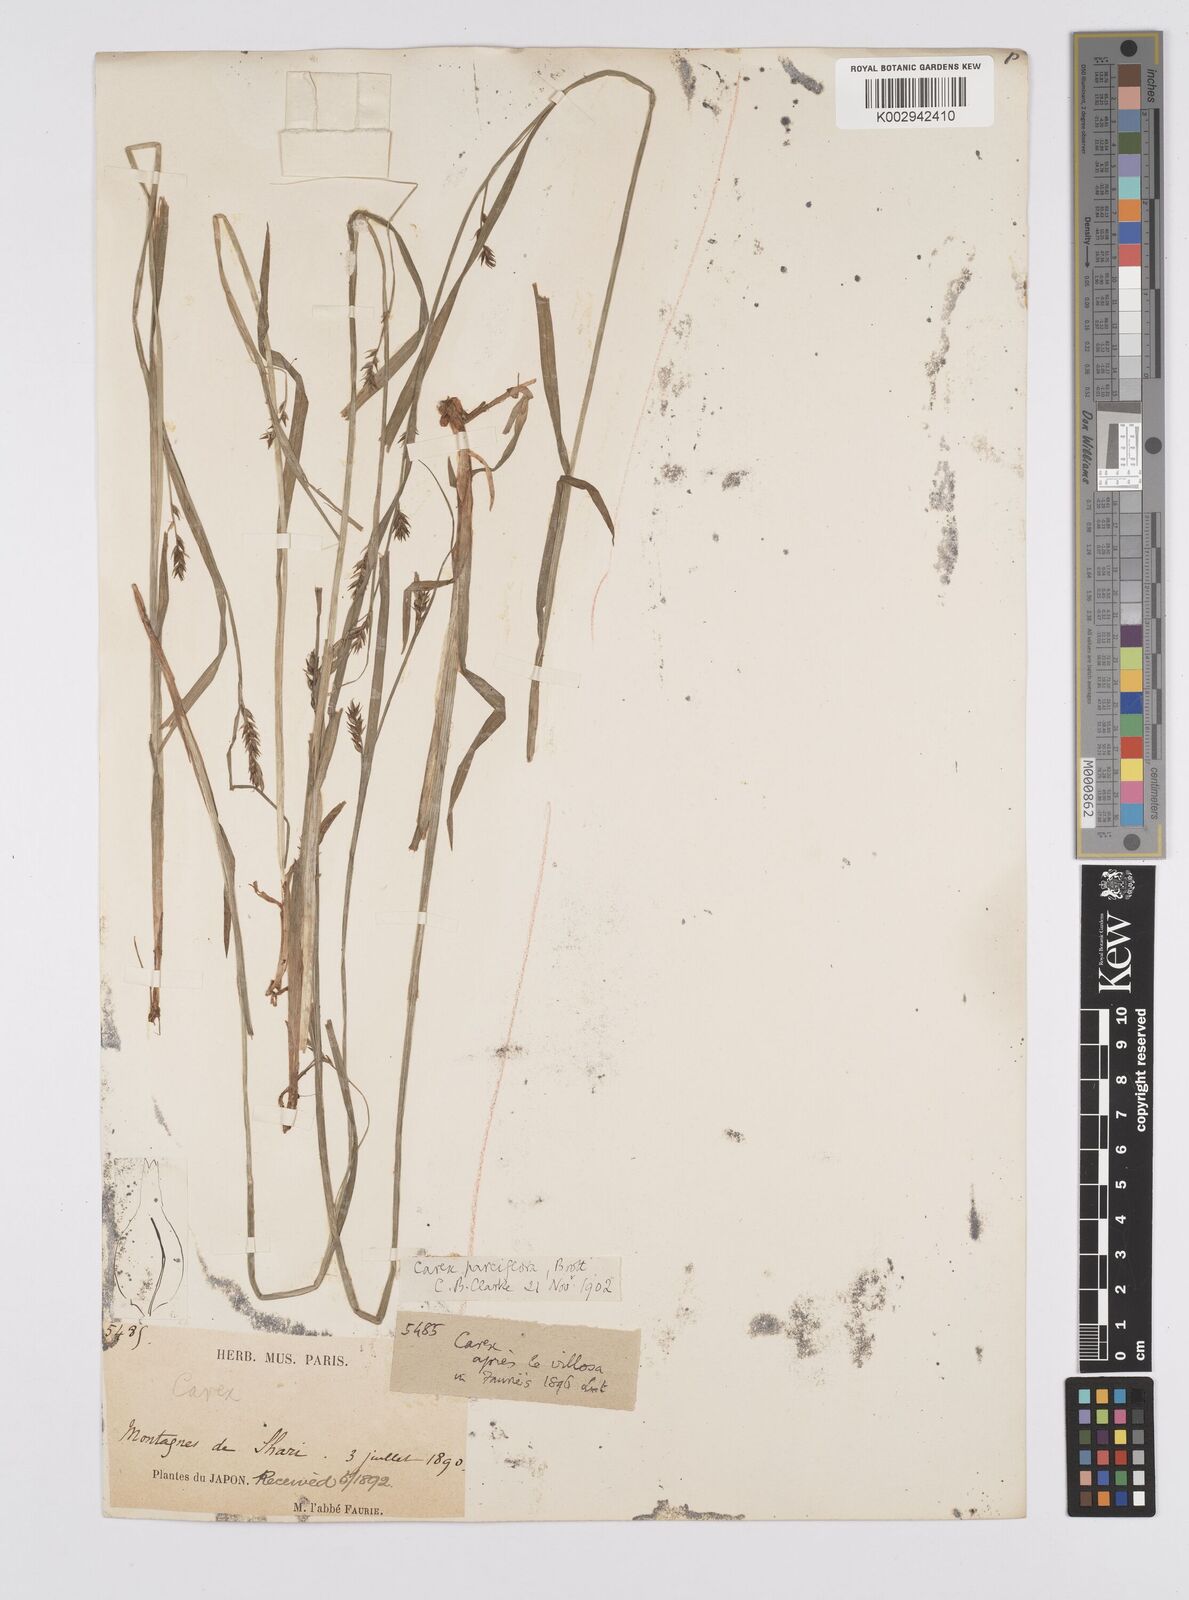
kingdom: Plantae
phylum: Tracheophyta
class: Liliopsida
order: Poales
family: Cyperaceae
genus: Carex
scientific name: Carex parciflora
